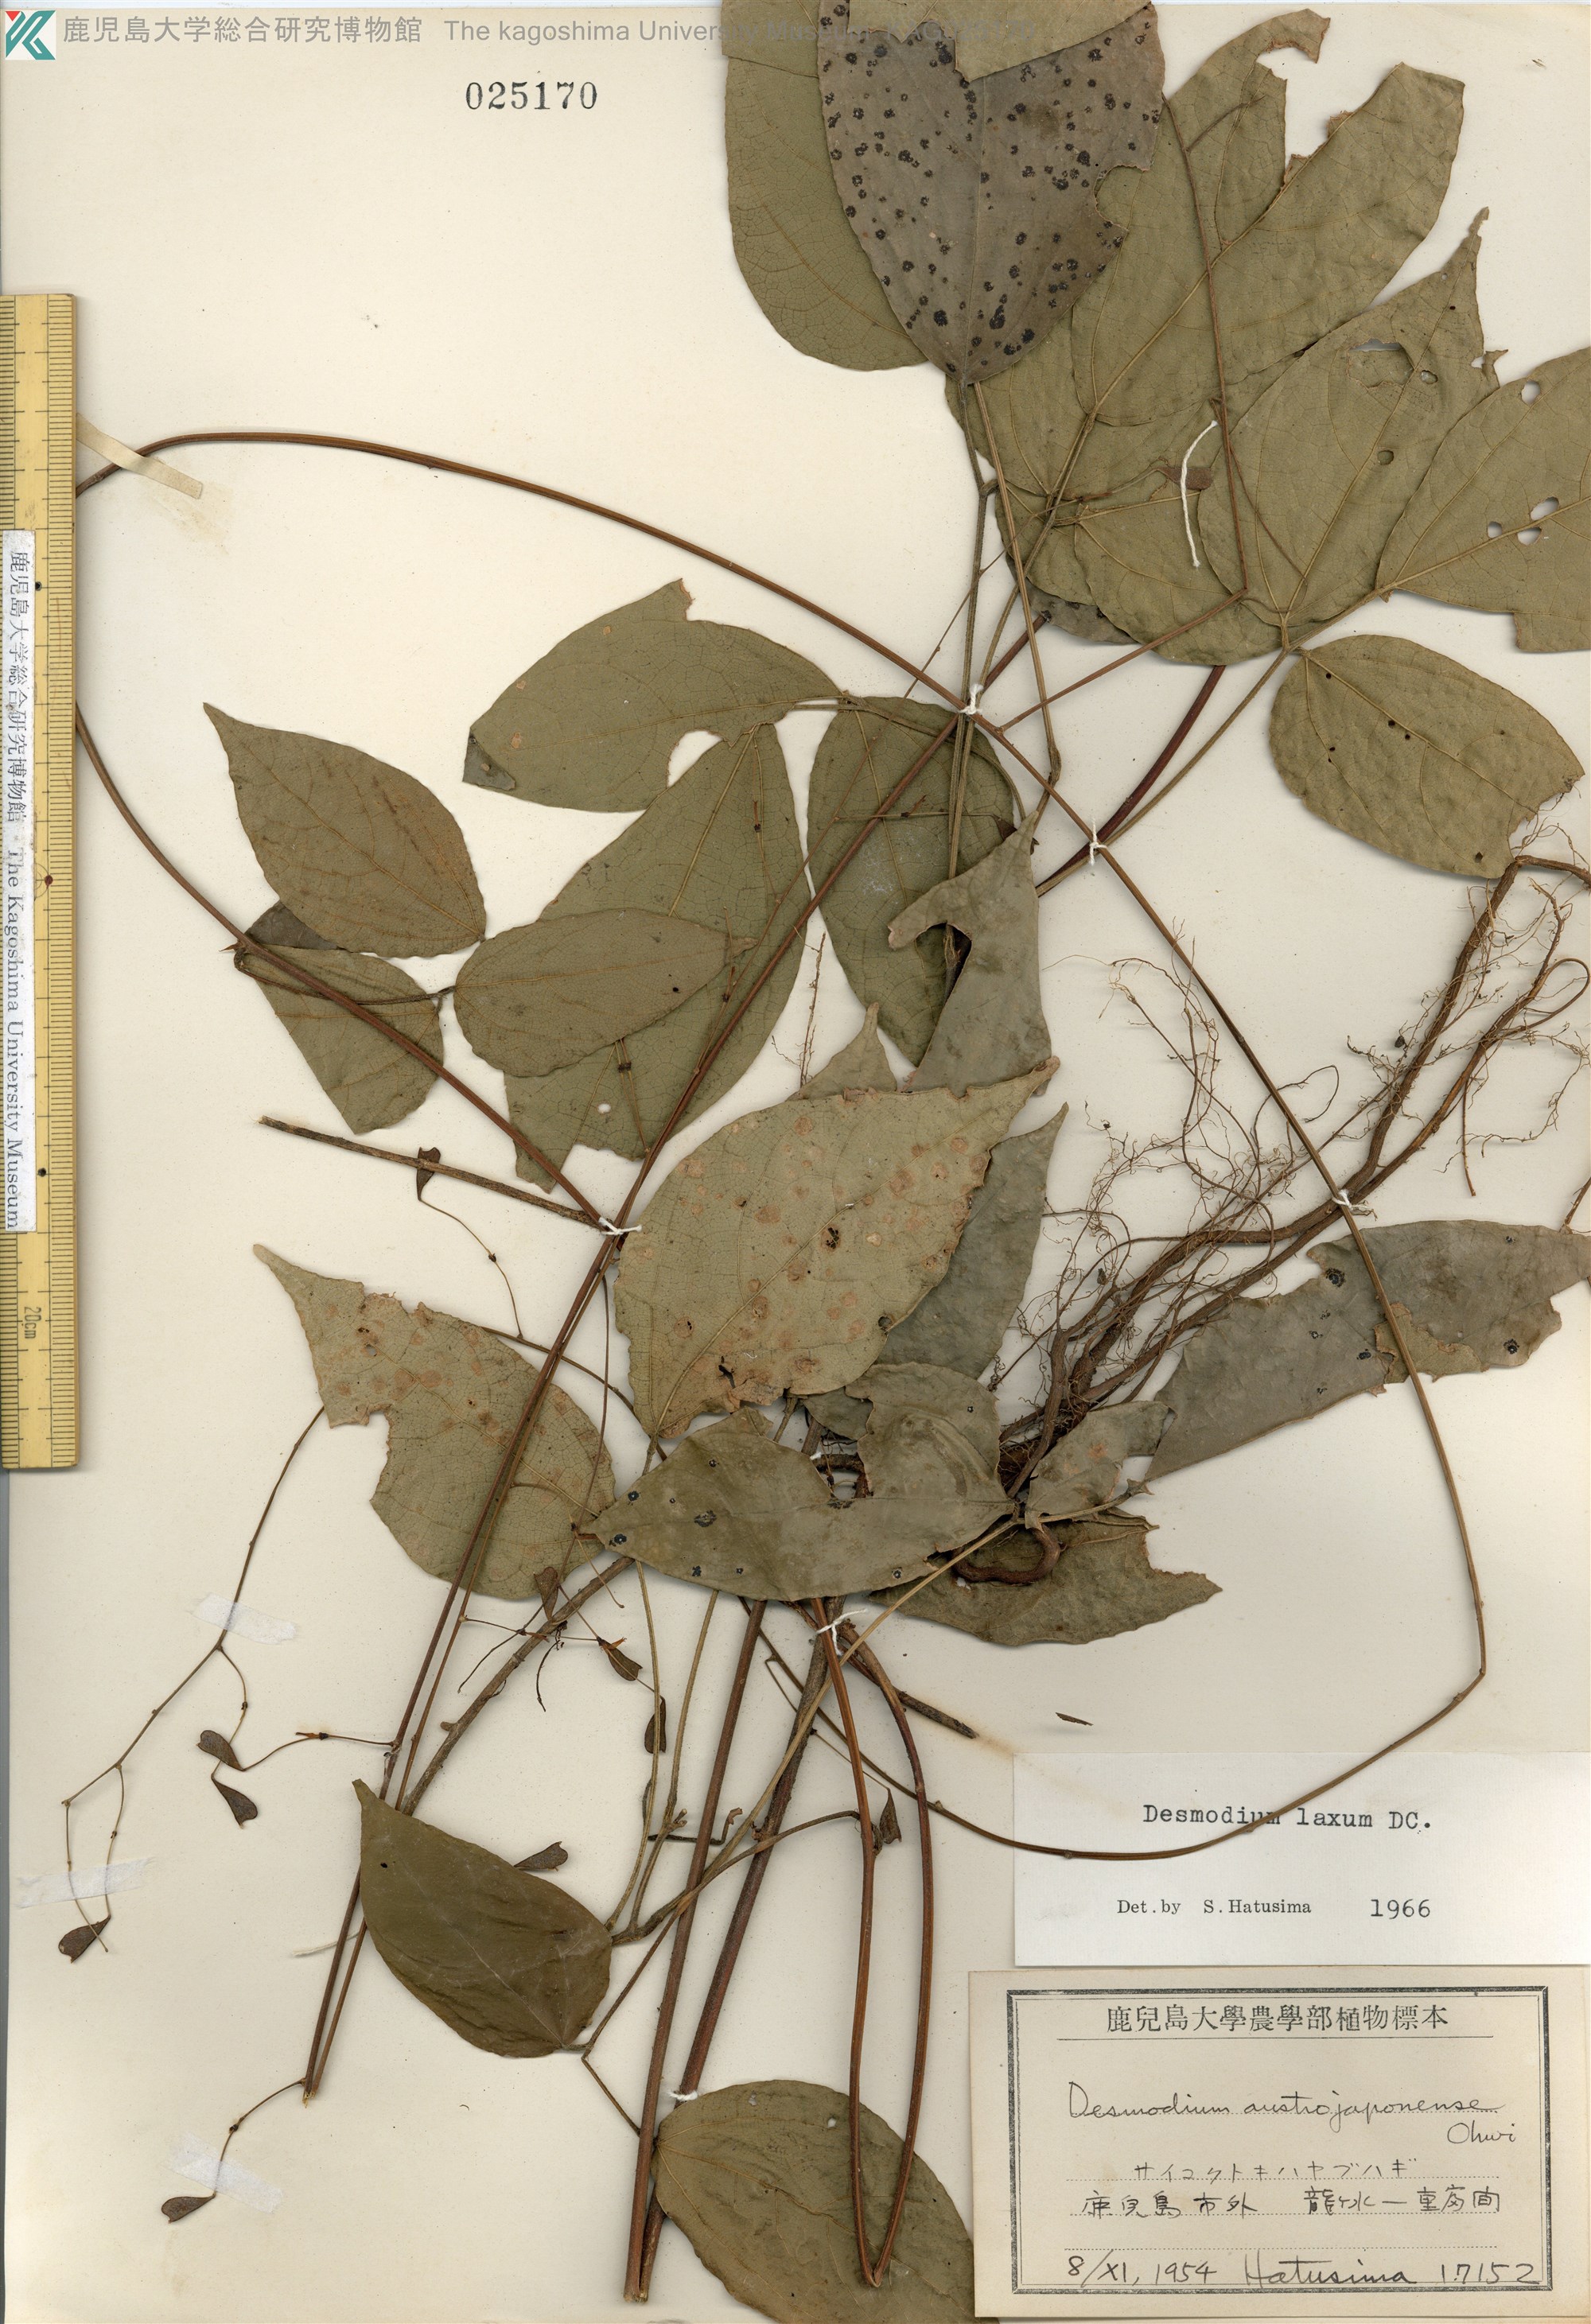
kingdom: Plantae
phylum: Tracheophyta
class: Magnoliopsida
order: Fabales
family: Fabaceae
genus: Desmodium
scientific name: Desmodium laxum
